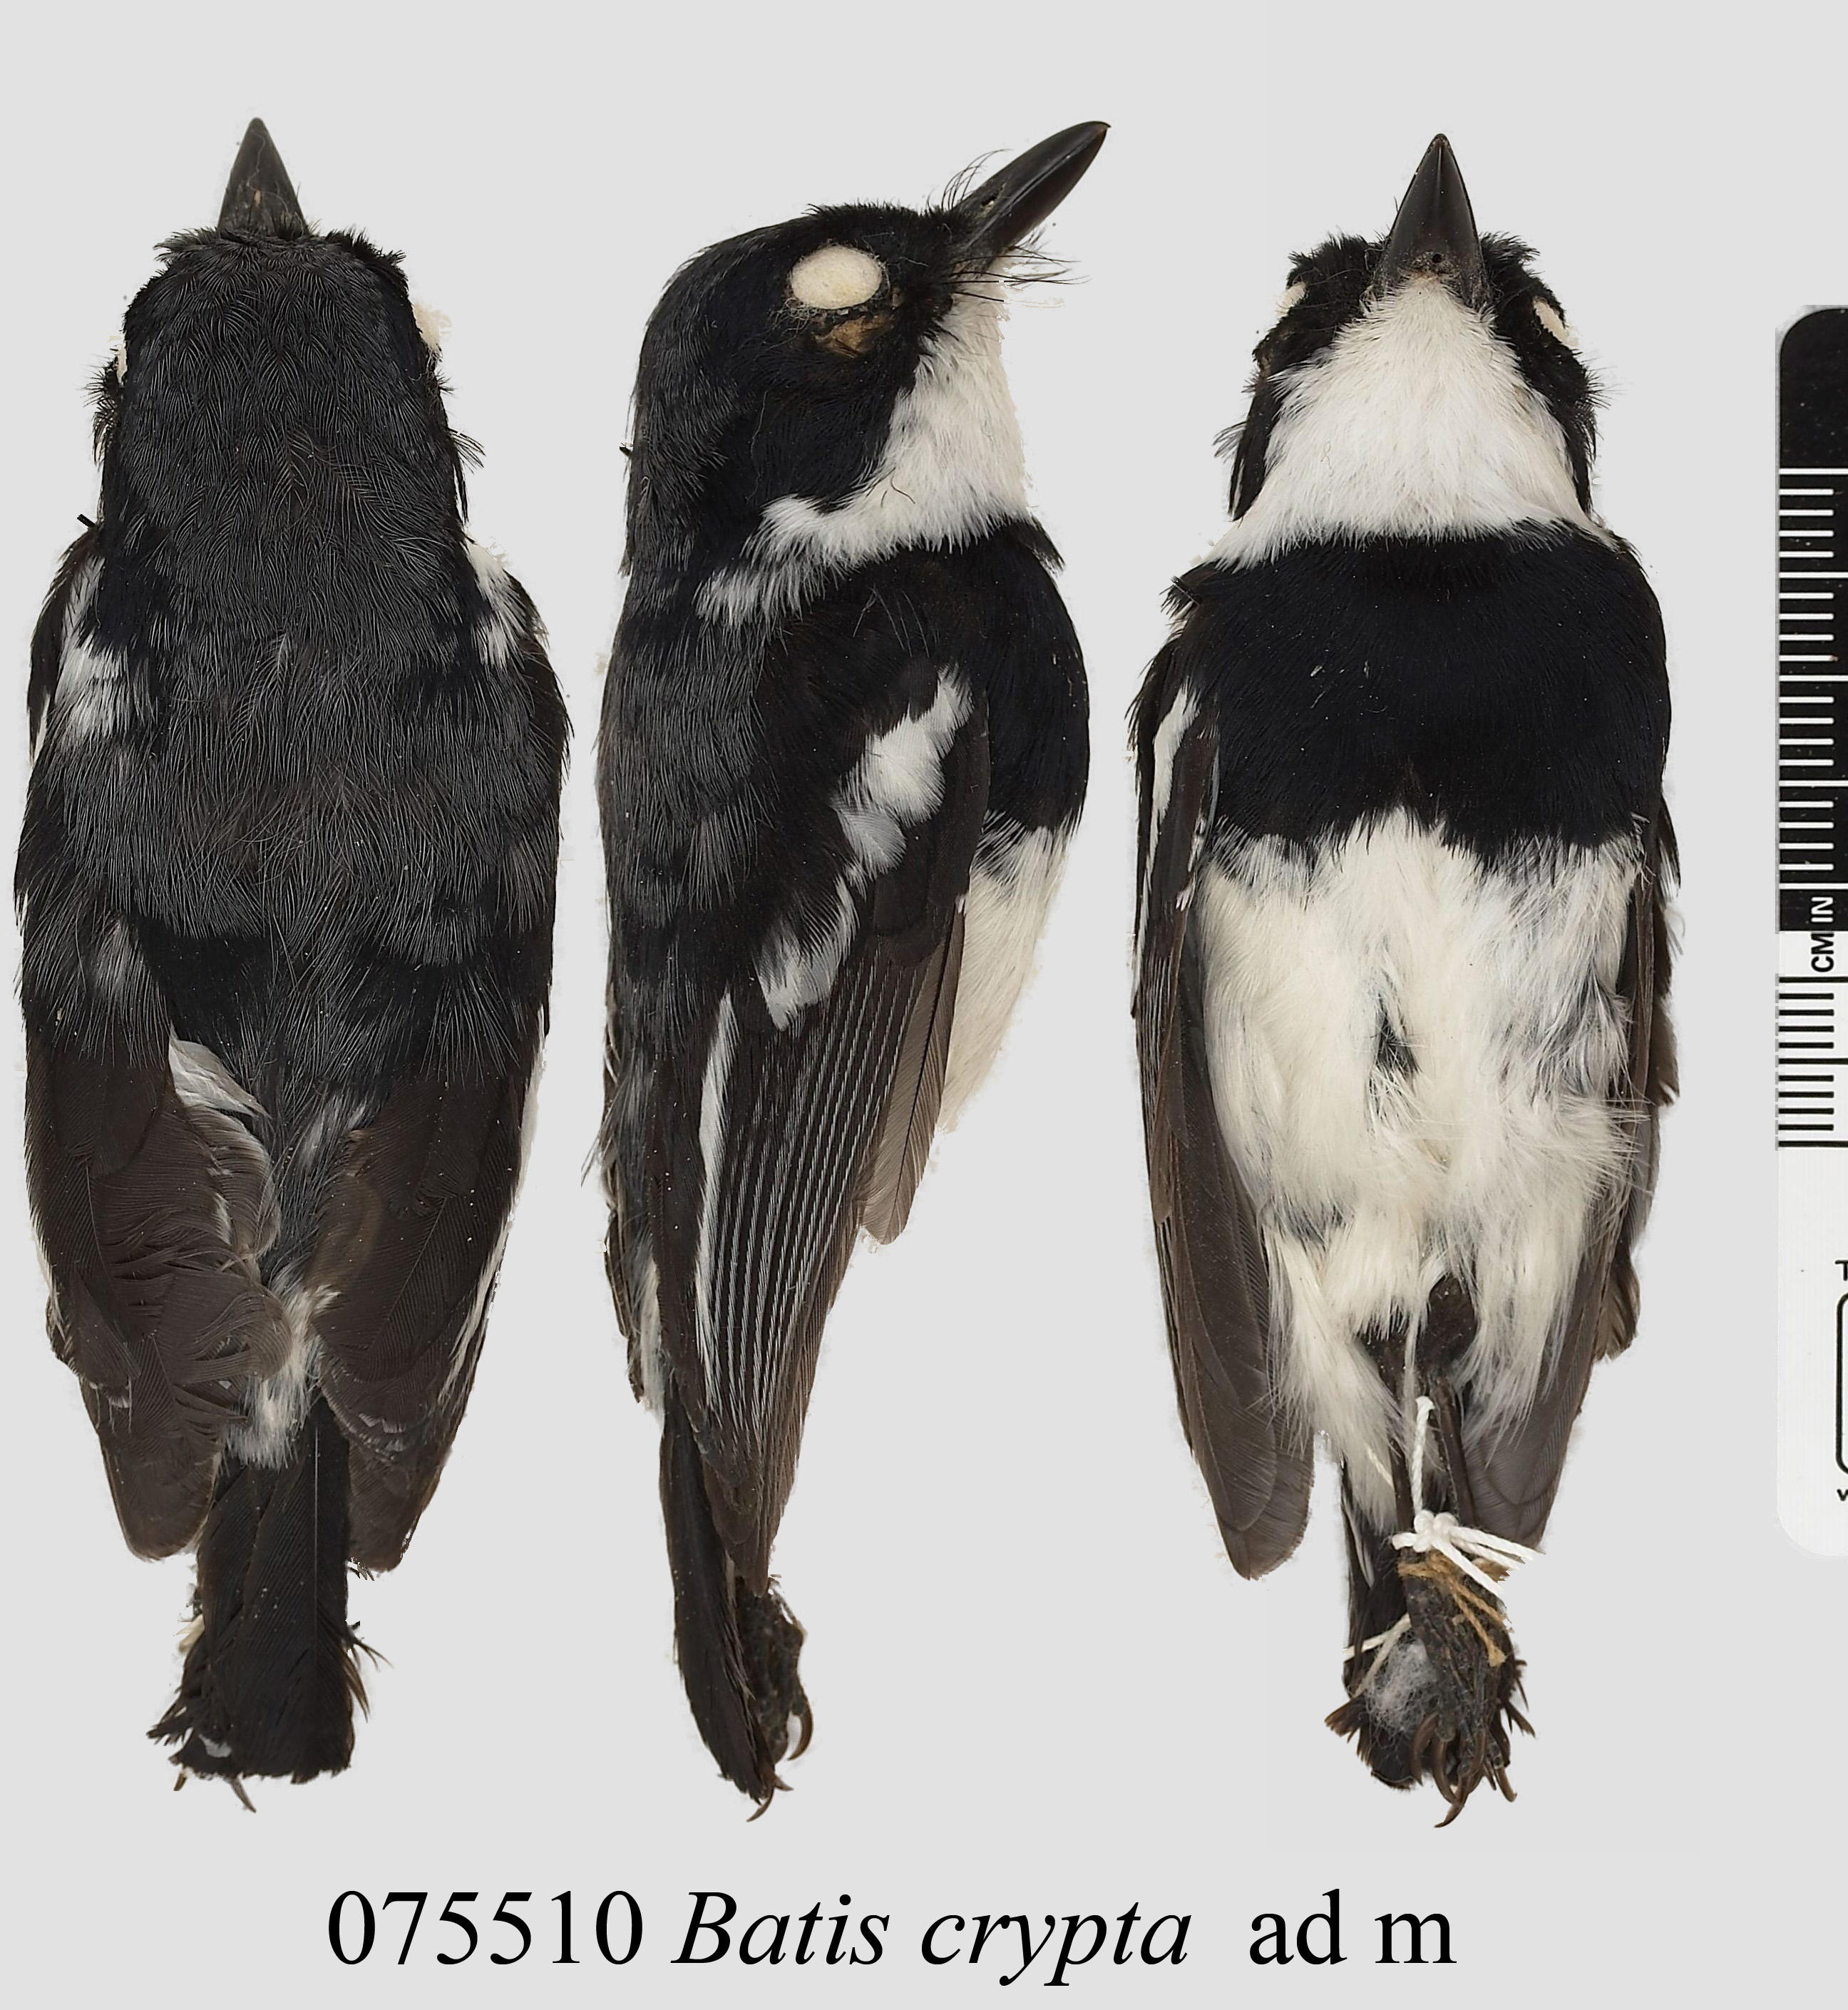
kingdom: Animalia
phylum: Chordata
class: Aves
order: Passeriformes
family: Platysteiridae
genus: Batis
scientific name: Batis crypta
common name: Dark batis
